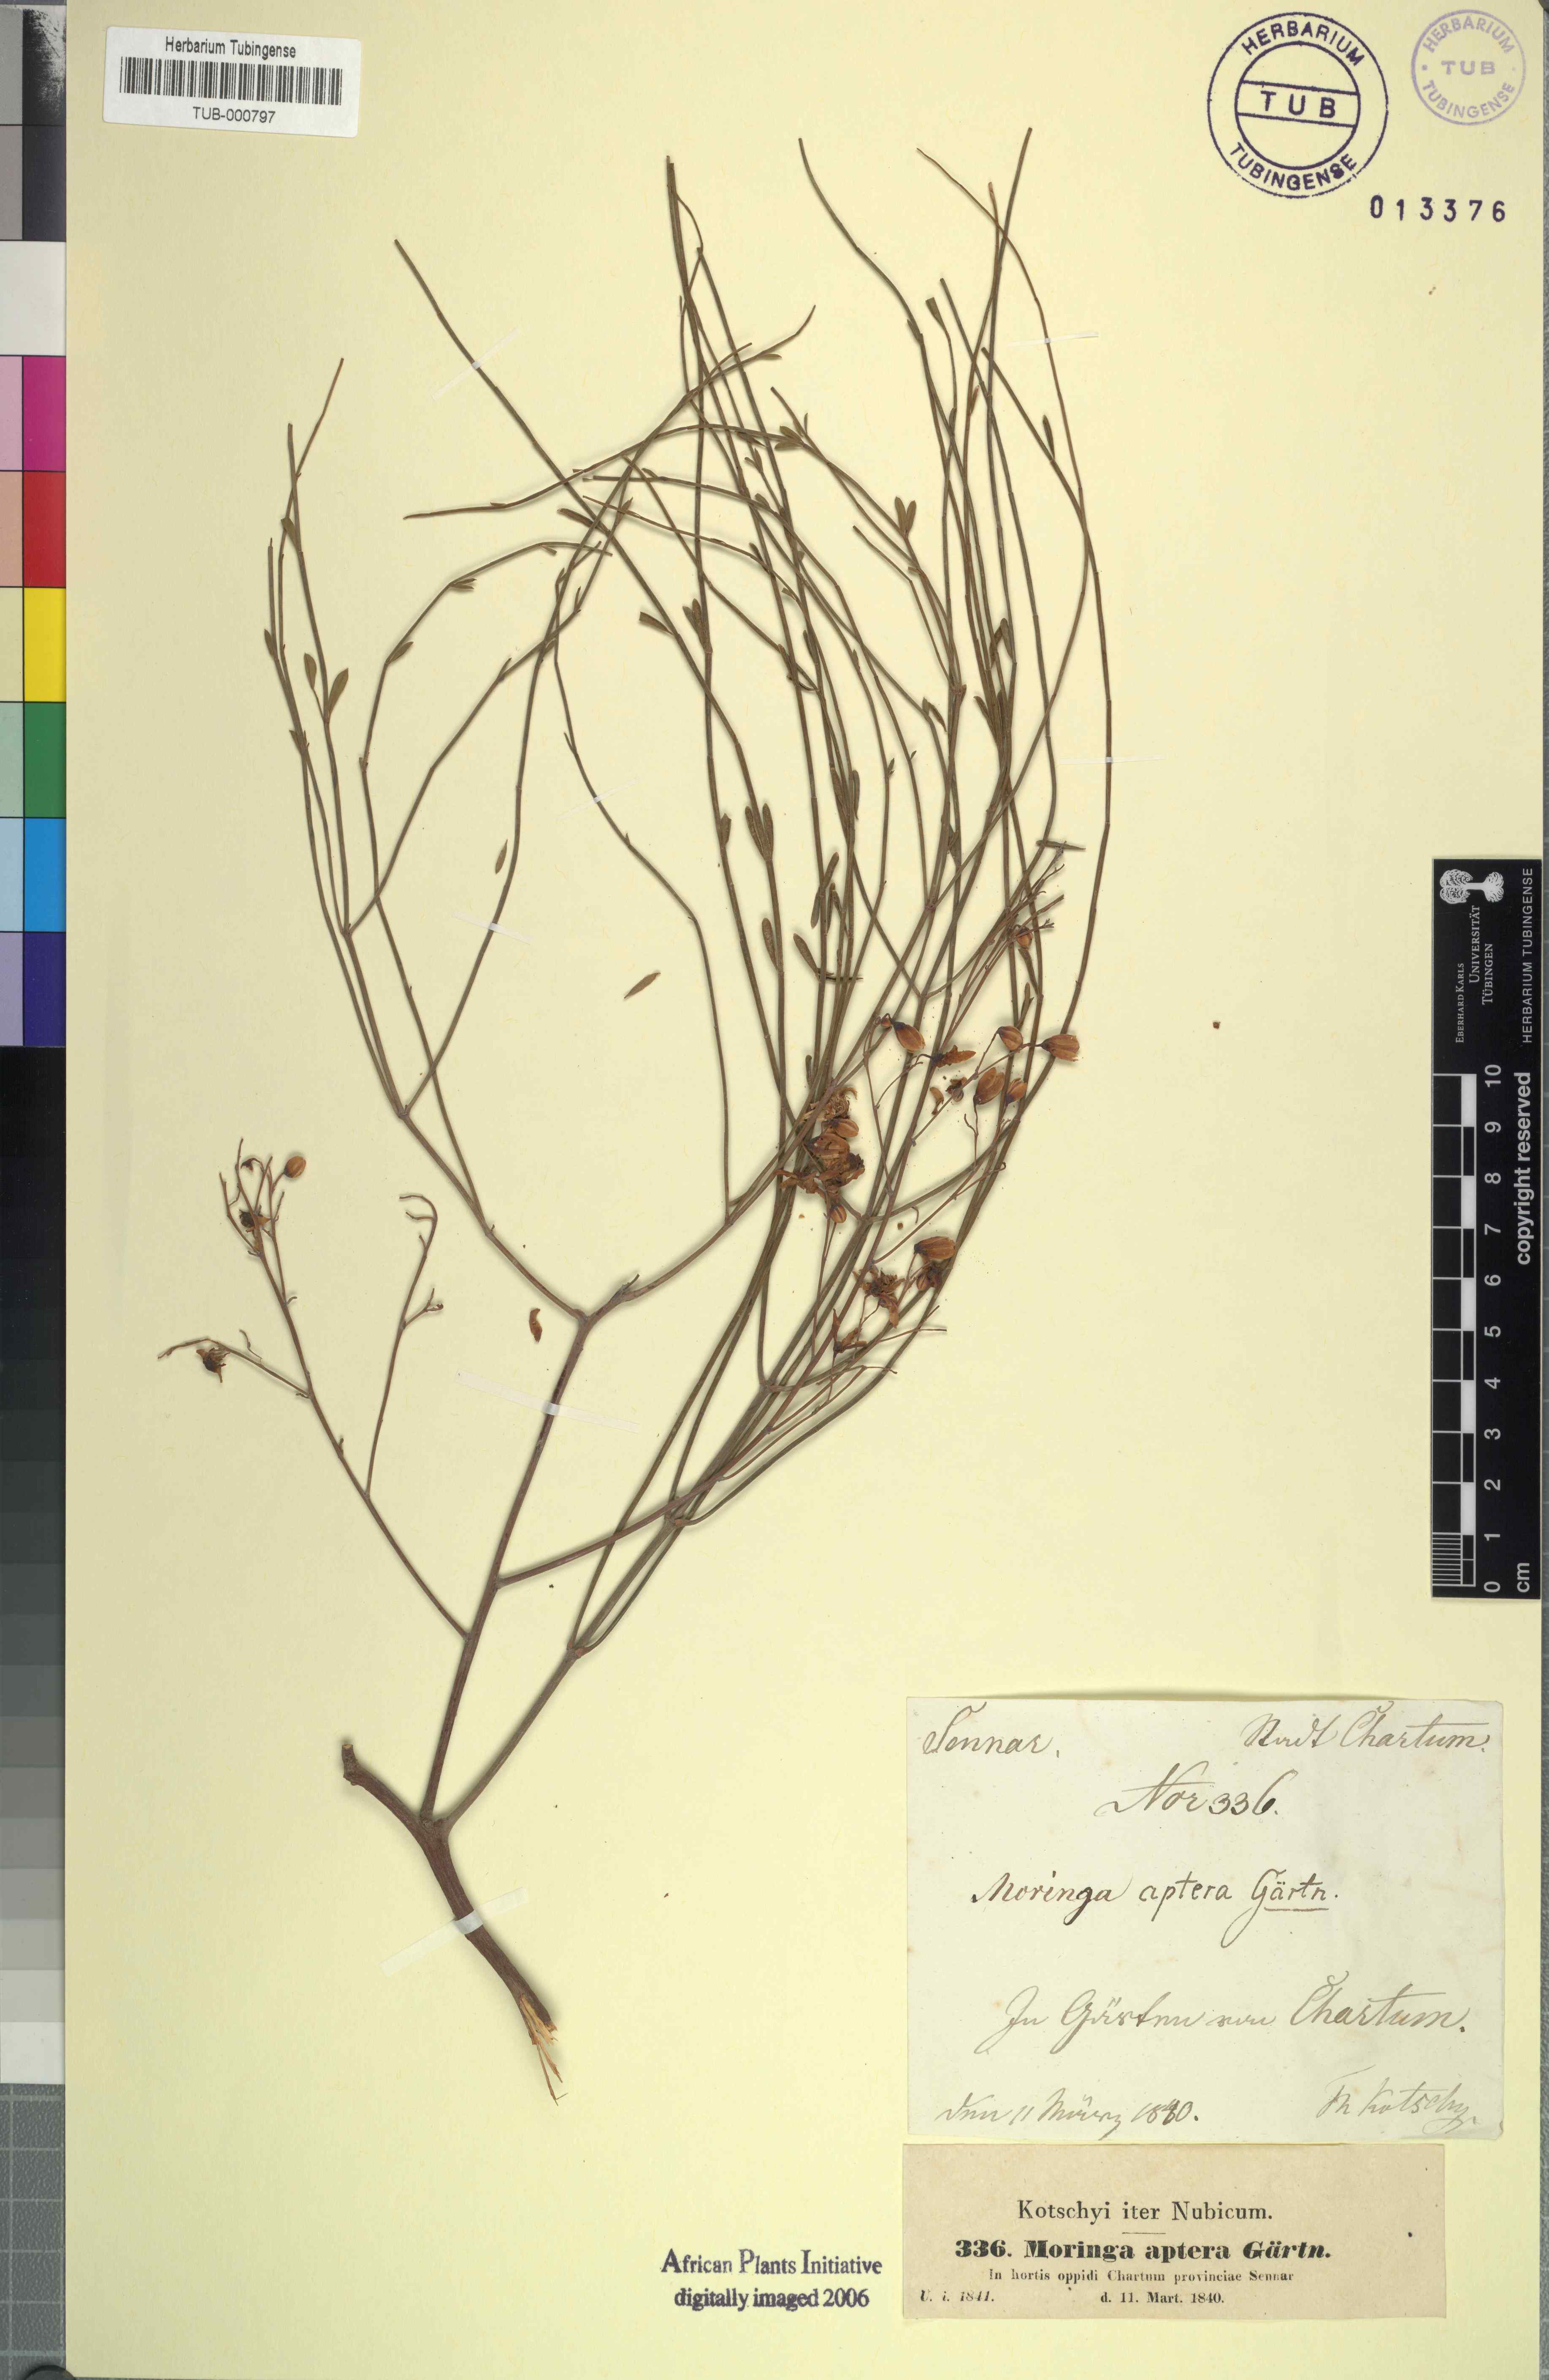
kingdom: Plantae
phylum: Tracheophyta
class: Magnoliopsida
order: Brassicales
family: Moringaceae
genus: Moringa
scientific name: Moringa peregrina
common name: Wild drumstick tree
